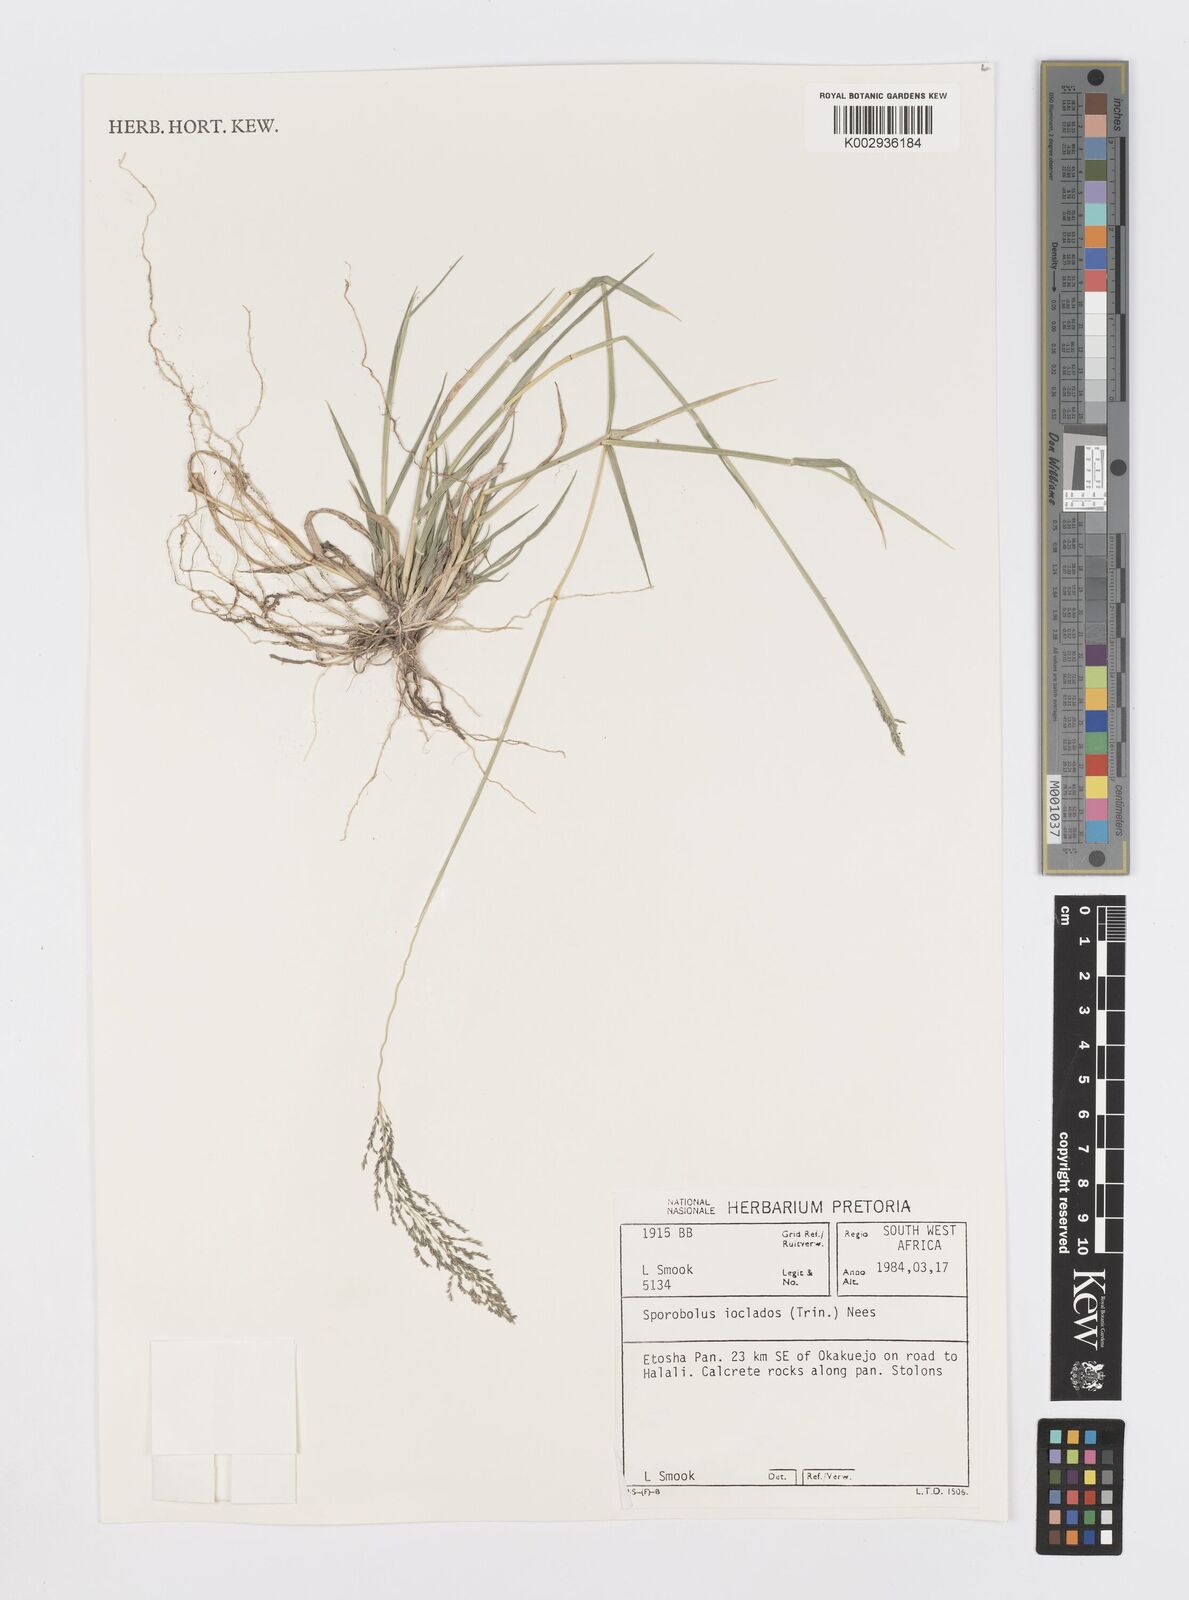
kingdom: Plantae
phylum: Tracheophyta
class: Liliopsida
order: Poales
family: Poaceae
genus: Sporobolus
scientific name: Sporobolus ioclados
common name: Pan dropseed
